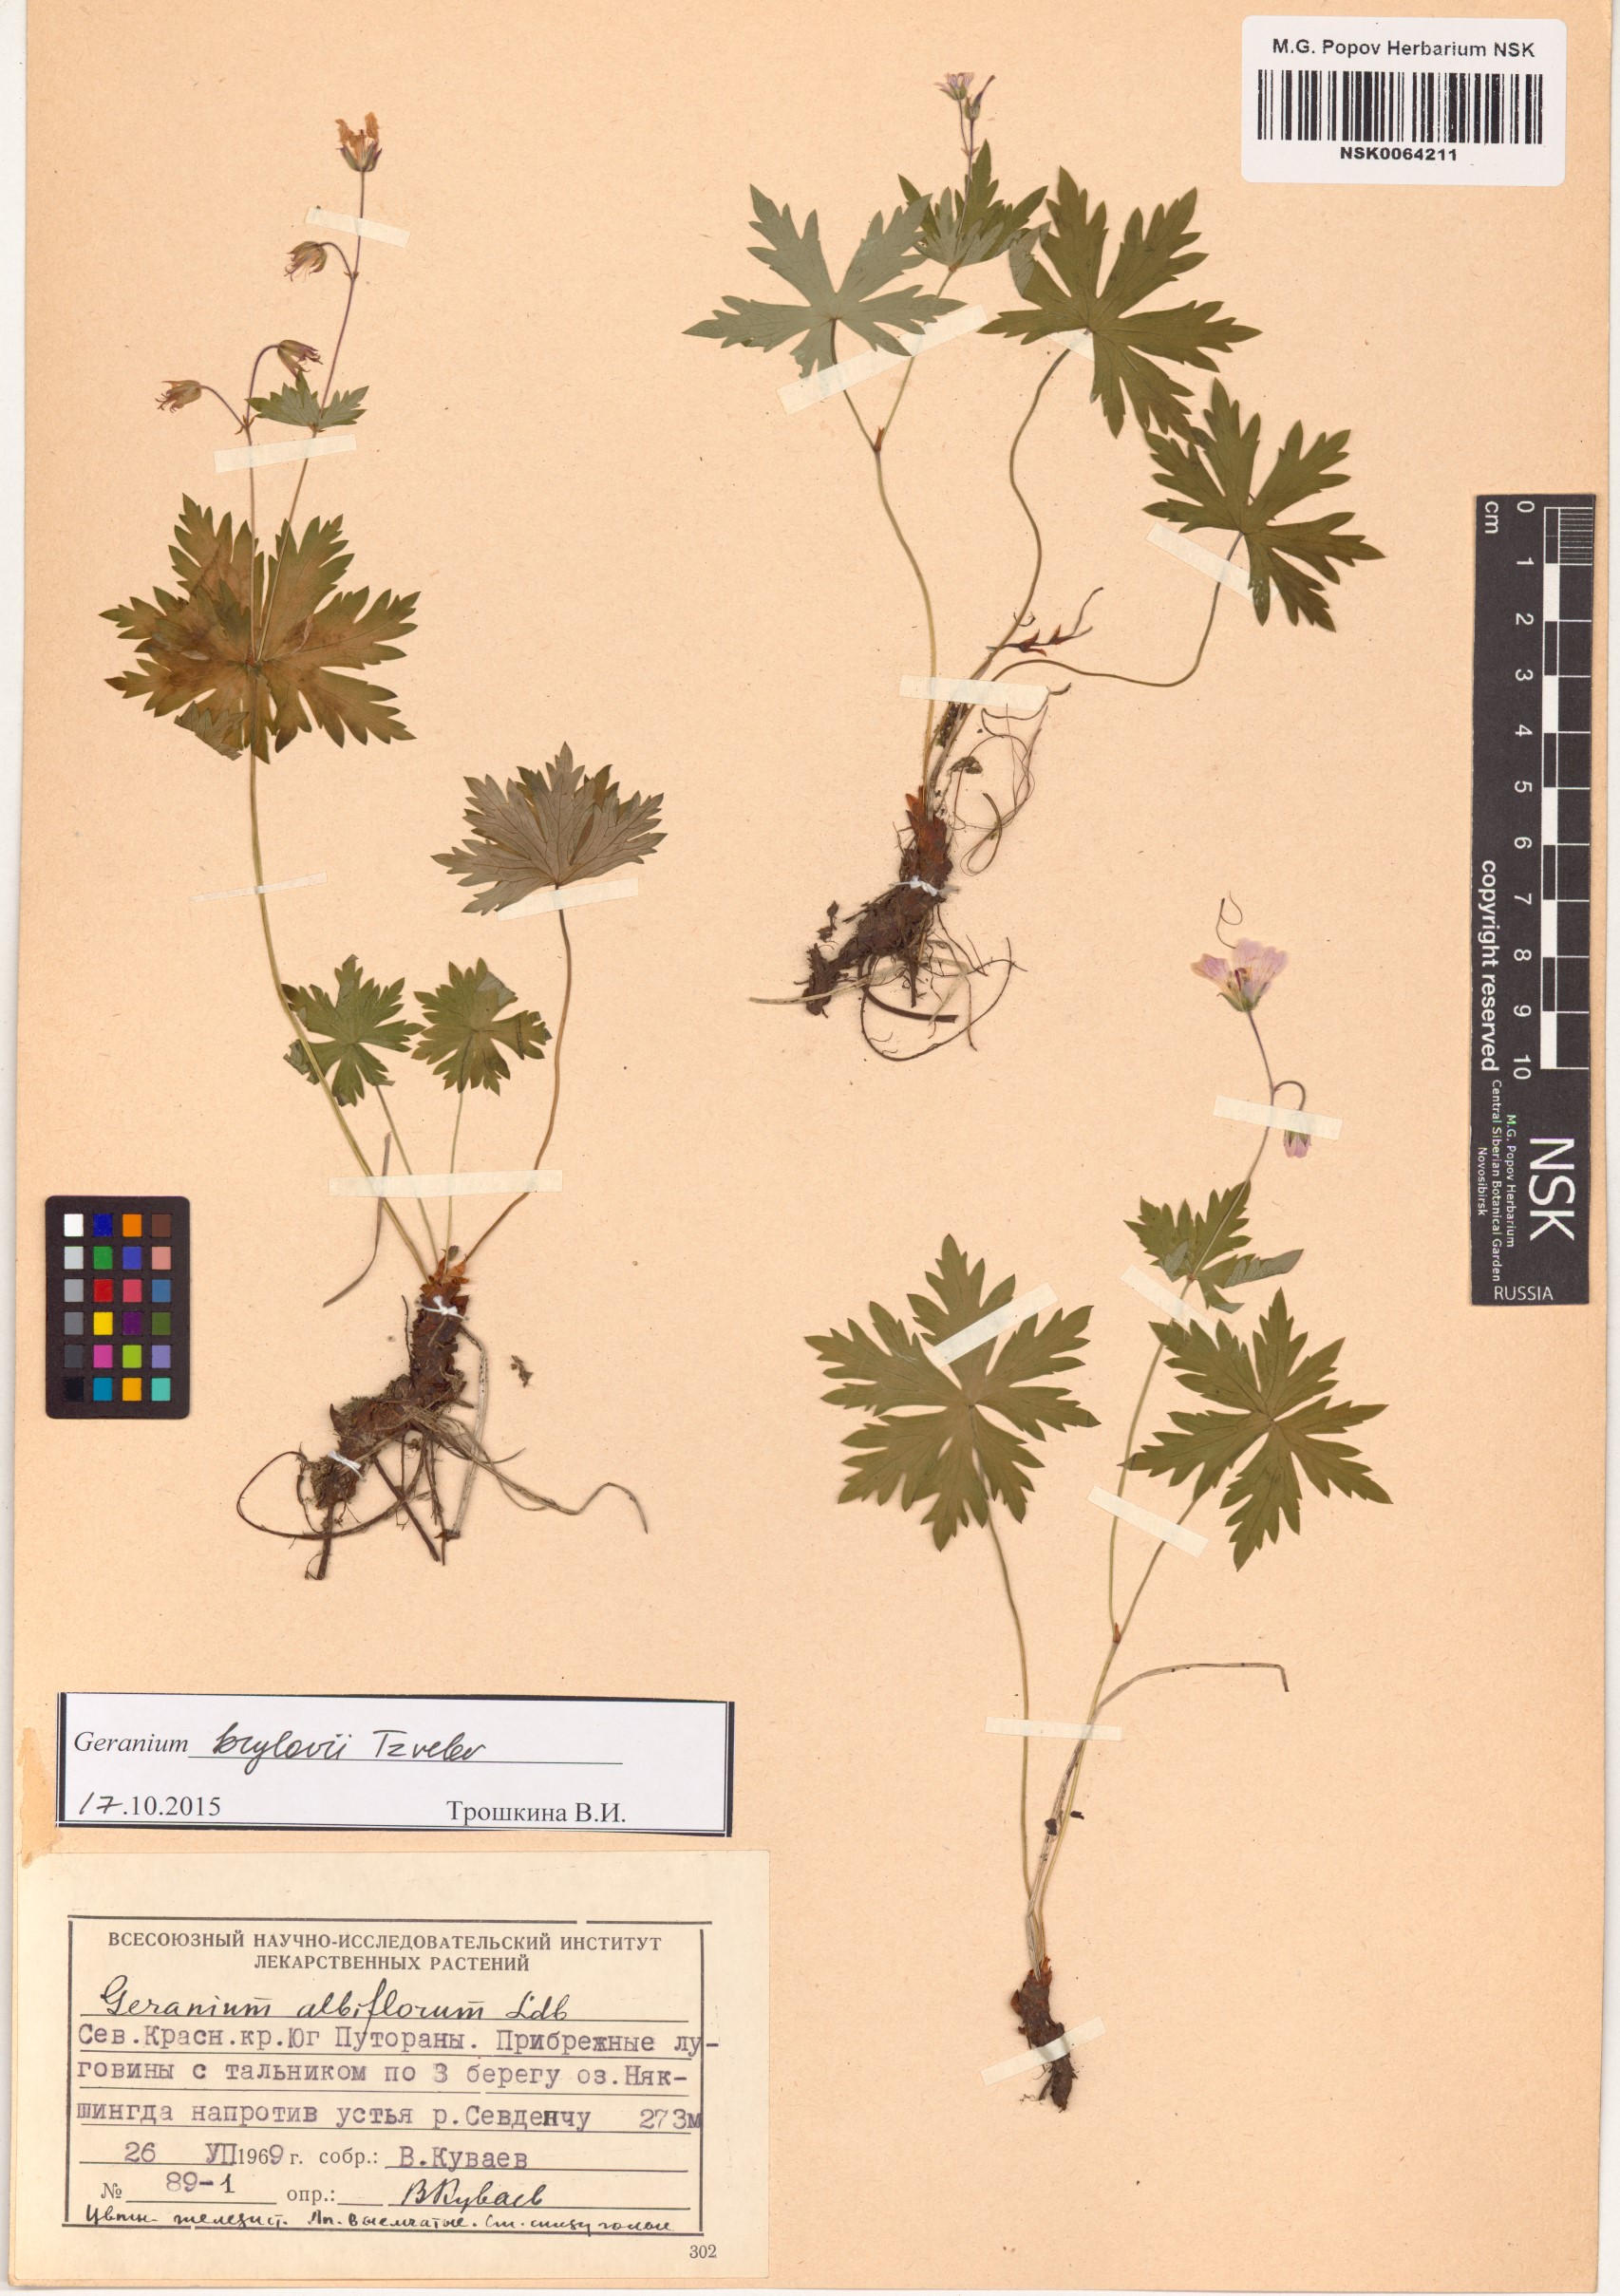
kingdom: Plantae
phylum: Tracheophyta
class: Magnoliopsida
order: Geraniales
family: Geraniaceae
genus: Geranium
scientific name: Geranium sylvaticum
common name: Wood crane's-bill
